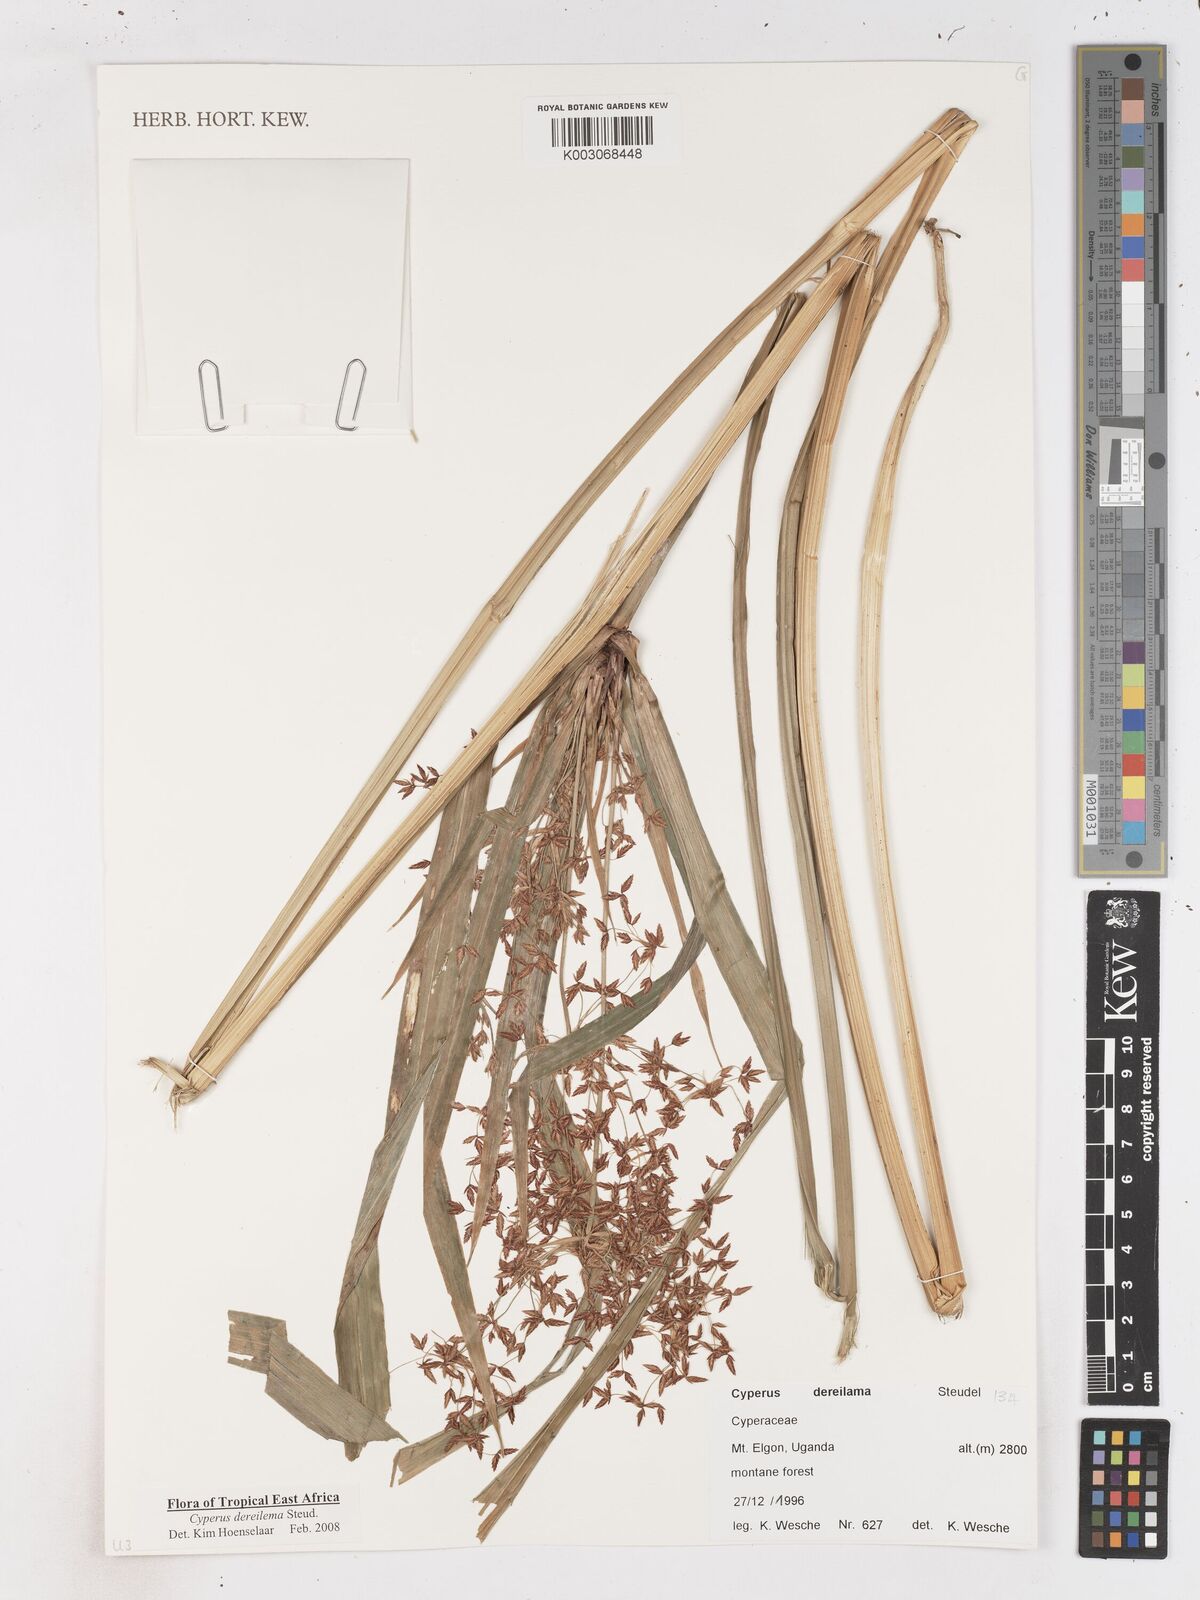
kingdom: Plantae
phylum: Tracheophyta
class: Liliopsida
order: Poales
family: Cyperaceae
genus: Cyperus
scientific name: Cyperus derreilema
